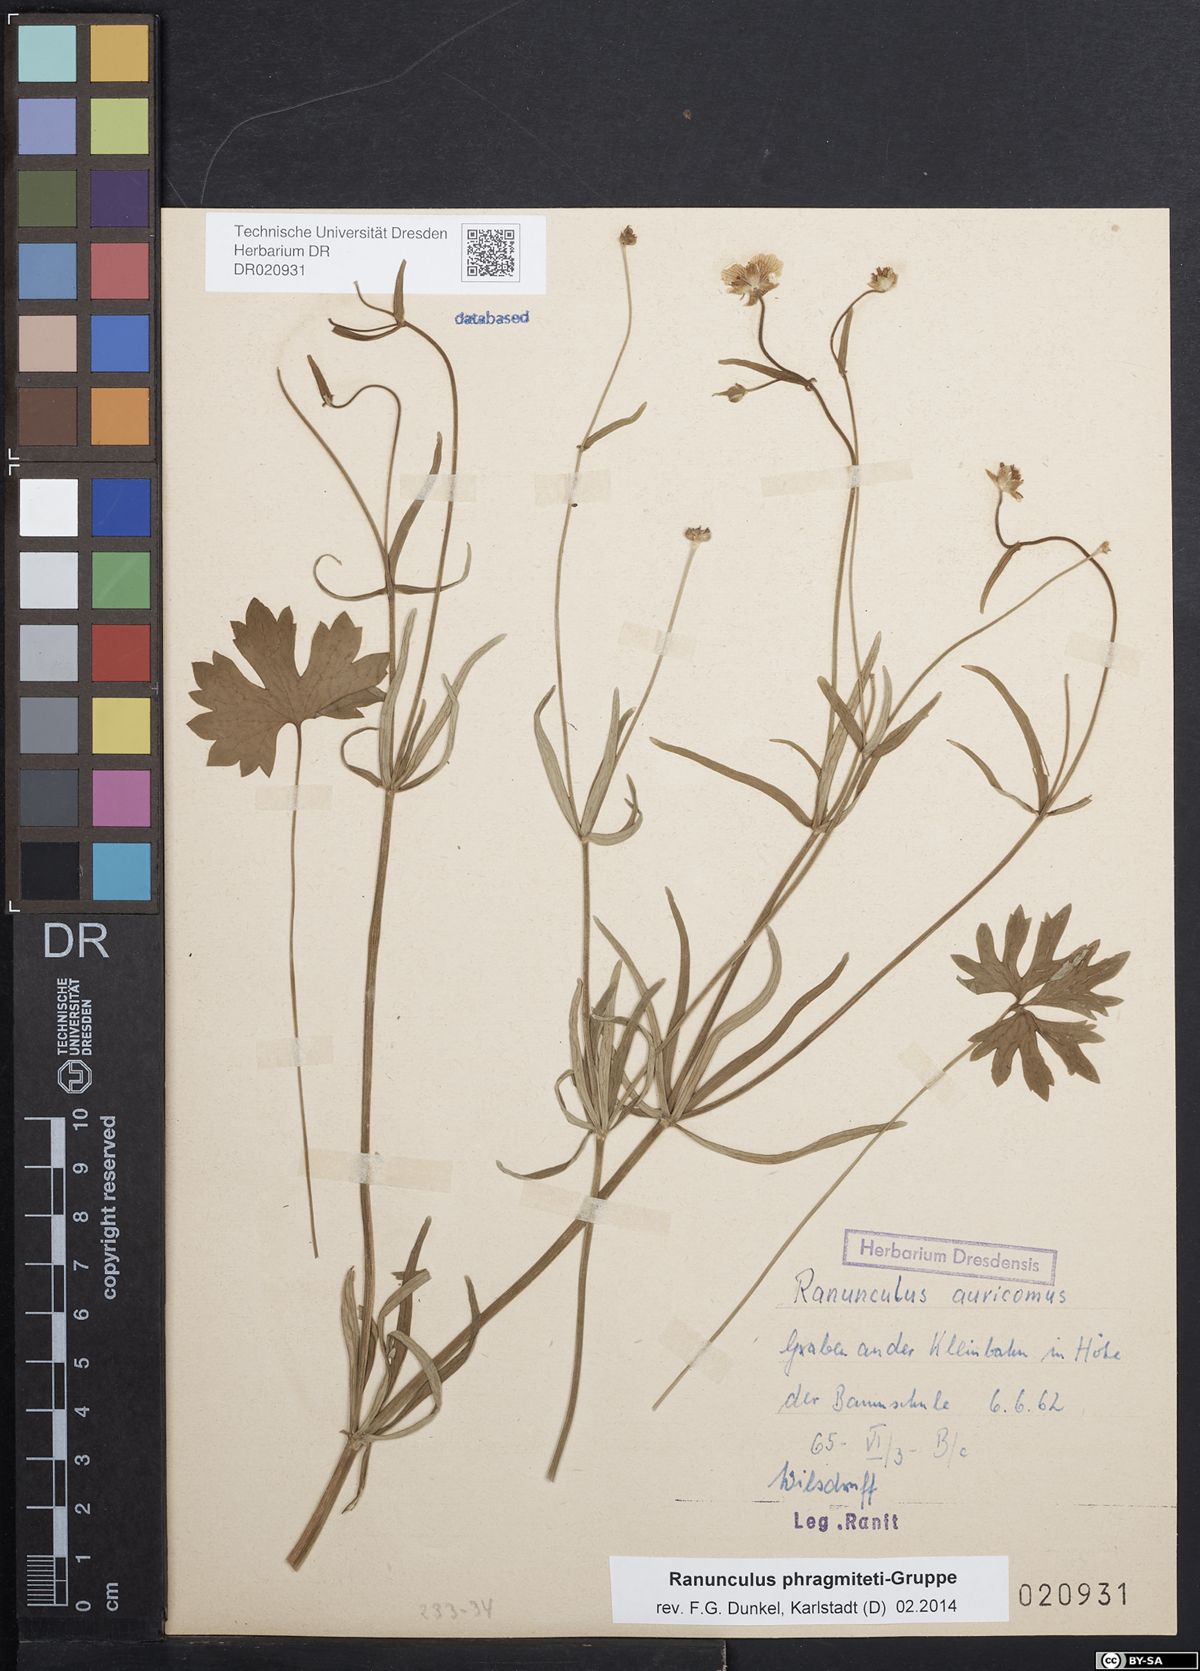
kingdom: Plantae
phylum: Tracheophyta
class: Magnoliopsida
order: Ranunculales
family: Ranunculaceae
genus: Ranunculus
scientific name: Ranunculus phragmiteti
